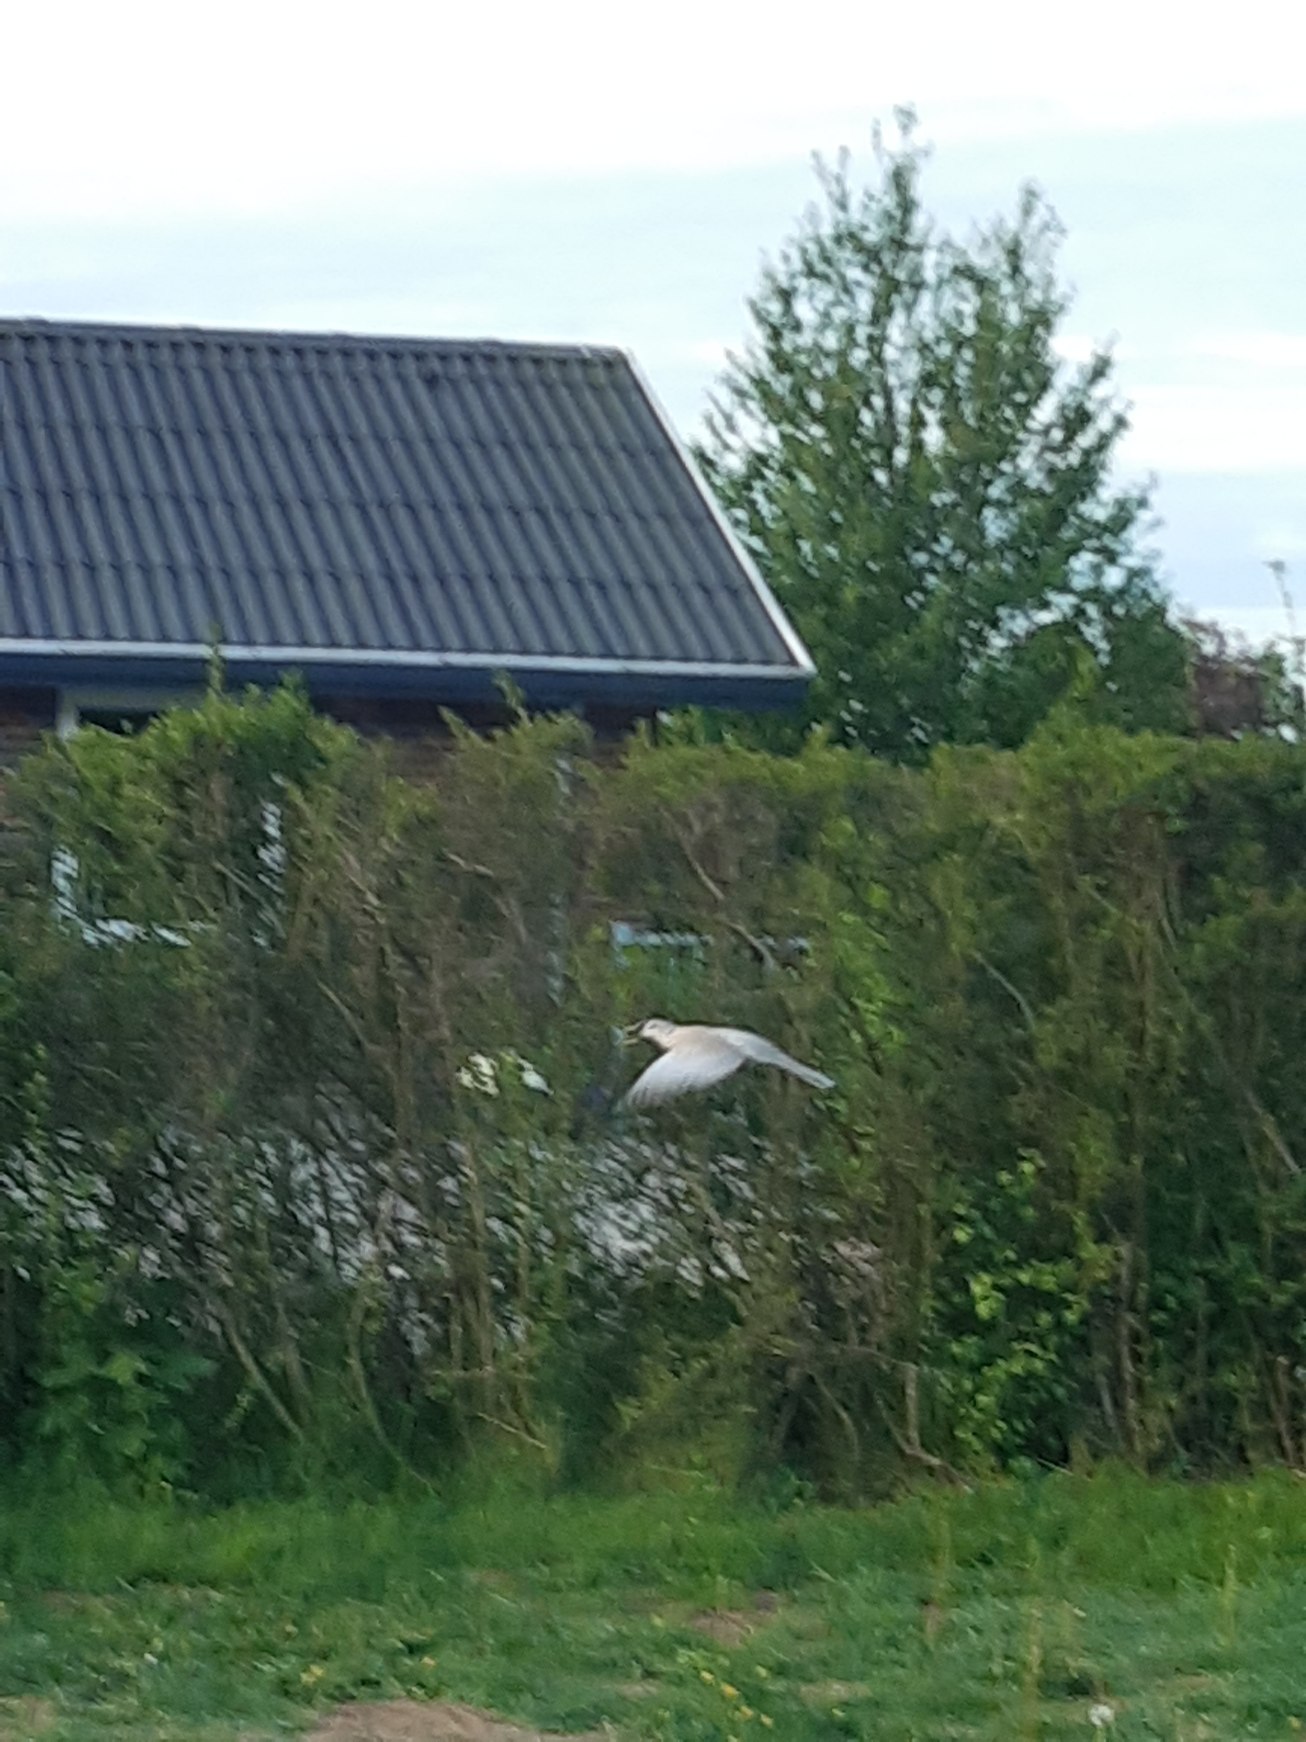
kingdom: Animalia
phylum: Chordata
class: Aves
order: Columbiformes
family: Columbidae
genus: Streptopelia
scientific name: Streptopelia decaocto
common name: Tyrkerdue
